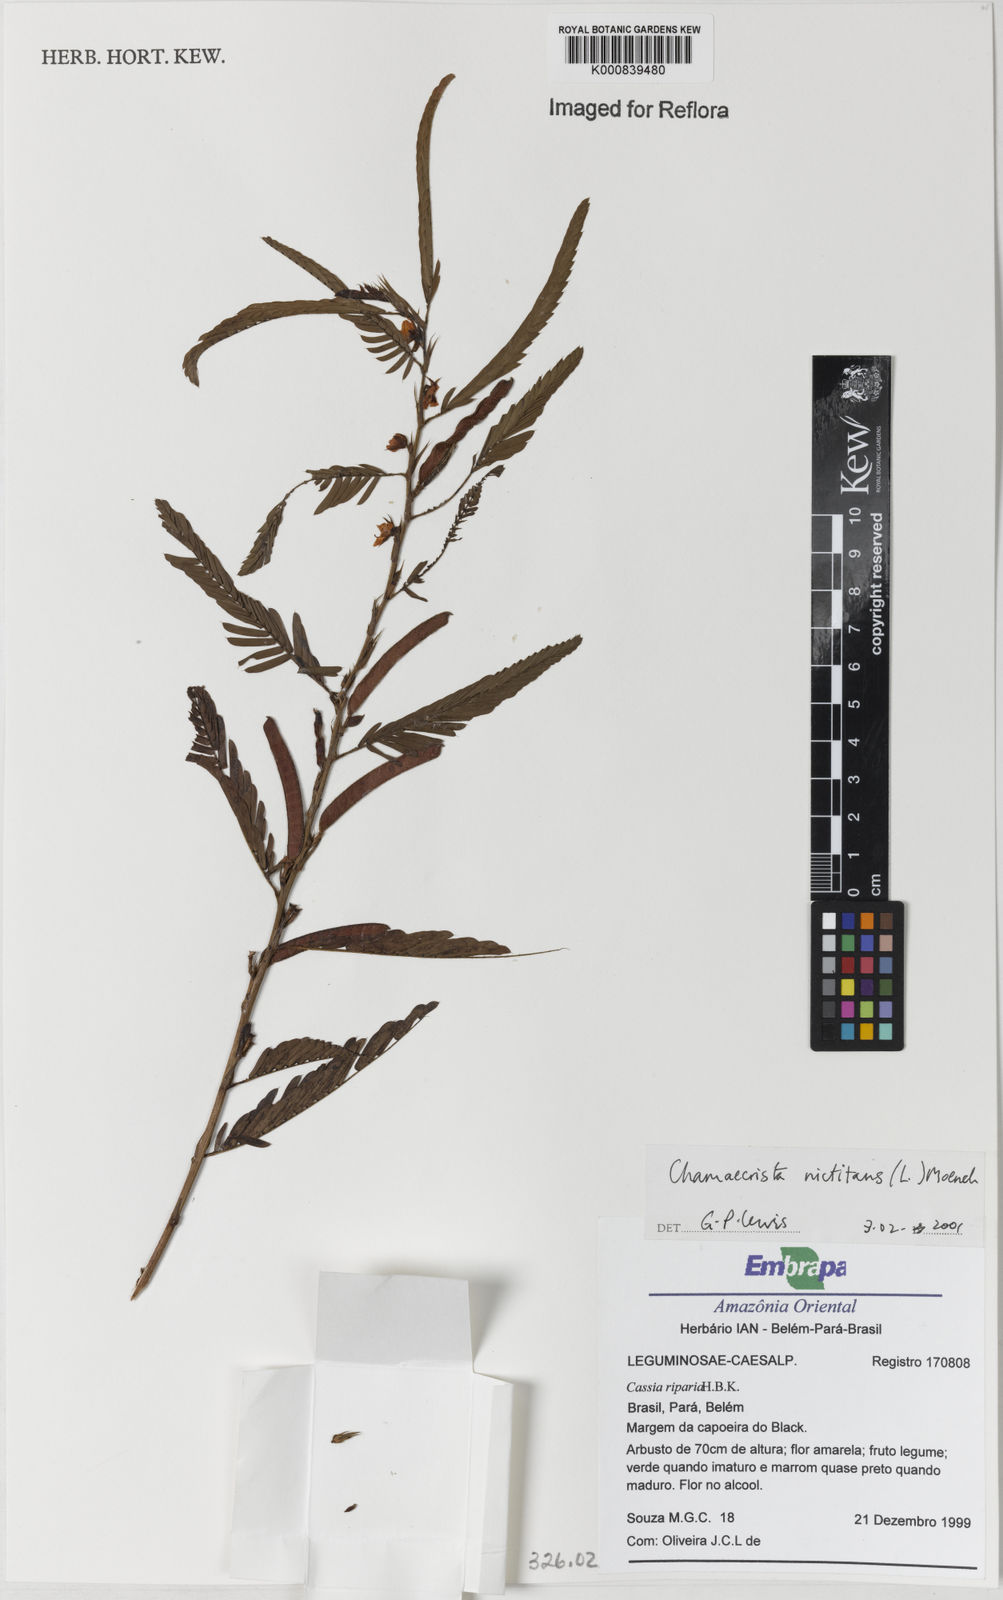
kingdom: Plantae
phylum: Tracheophyta
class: Magnoliopsida
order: Fabales
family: Fabaceae
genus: Chamaecrista
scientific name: Chamaecrista nictitans
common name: Sensitive cassia
